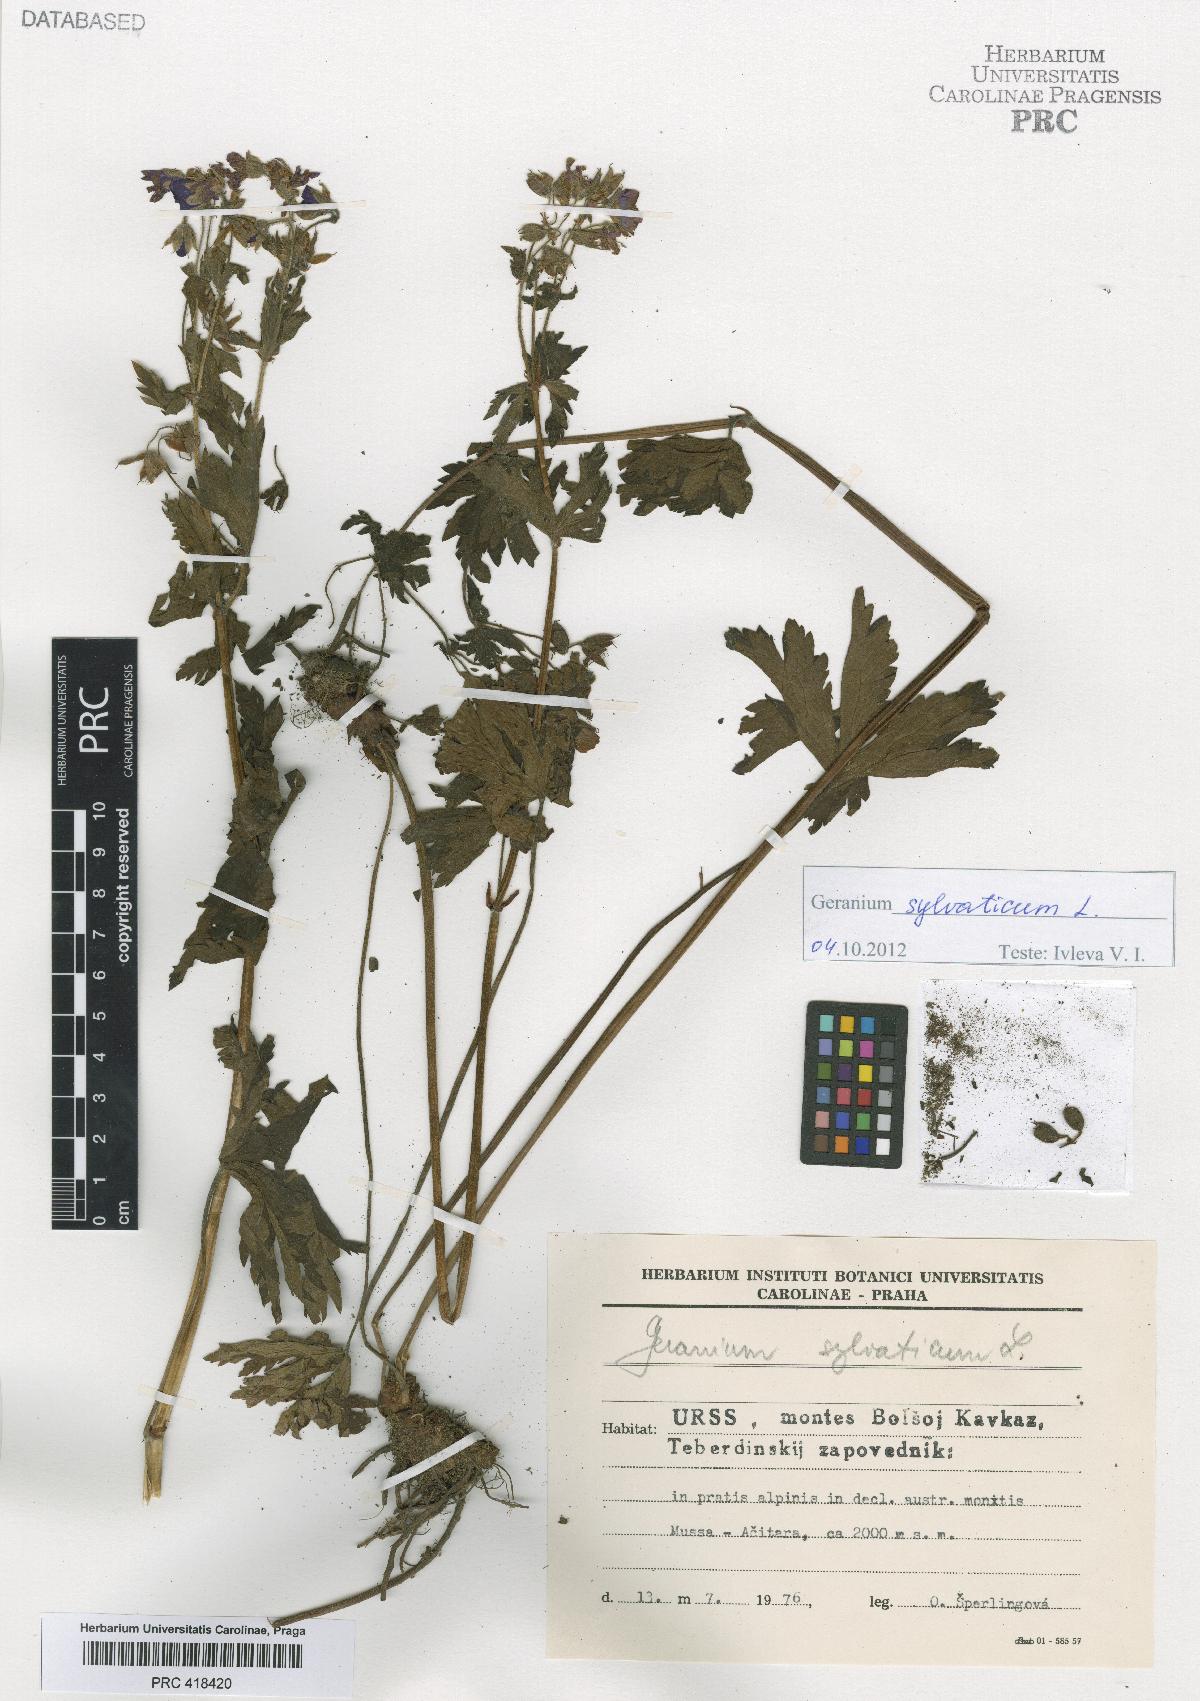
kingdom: Plantae
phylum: Tracheophyta
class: Magnoliopsida
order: Geraniales
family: Geraniaceae
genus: Geranium
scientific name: Geranium sylvaticum
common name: Wood crane's-bill
